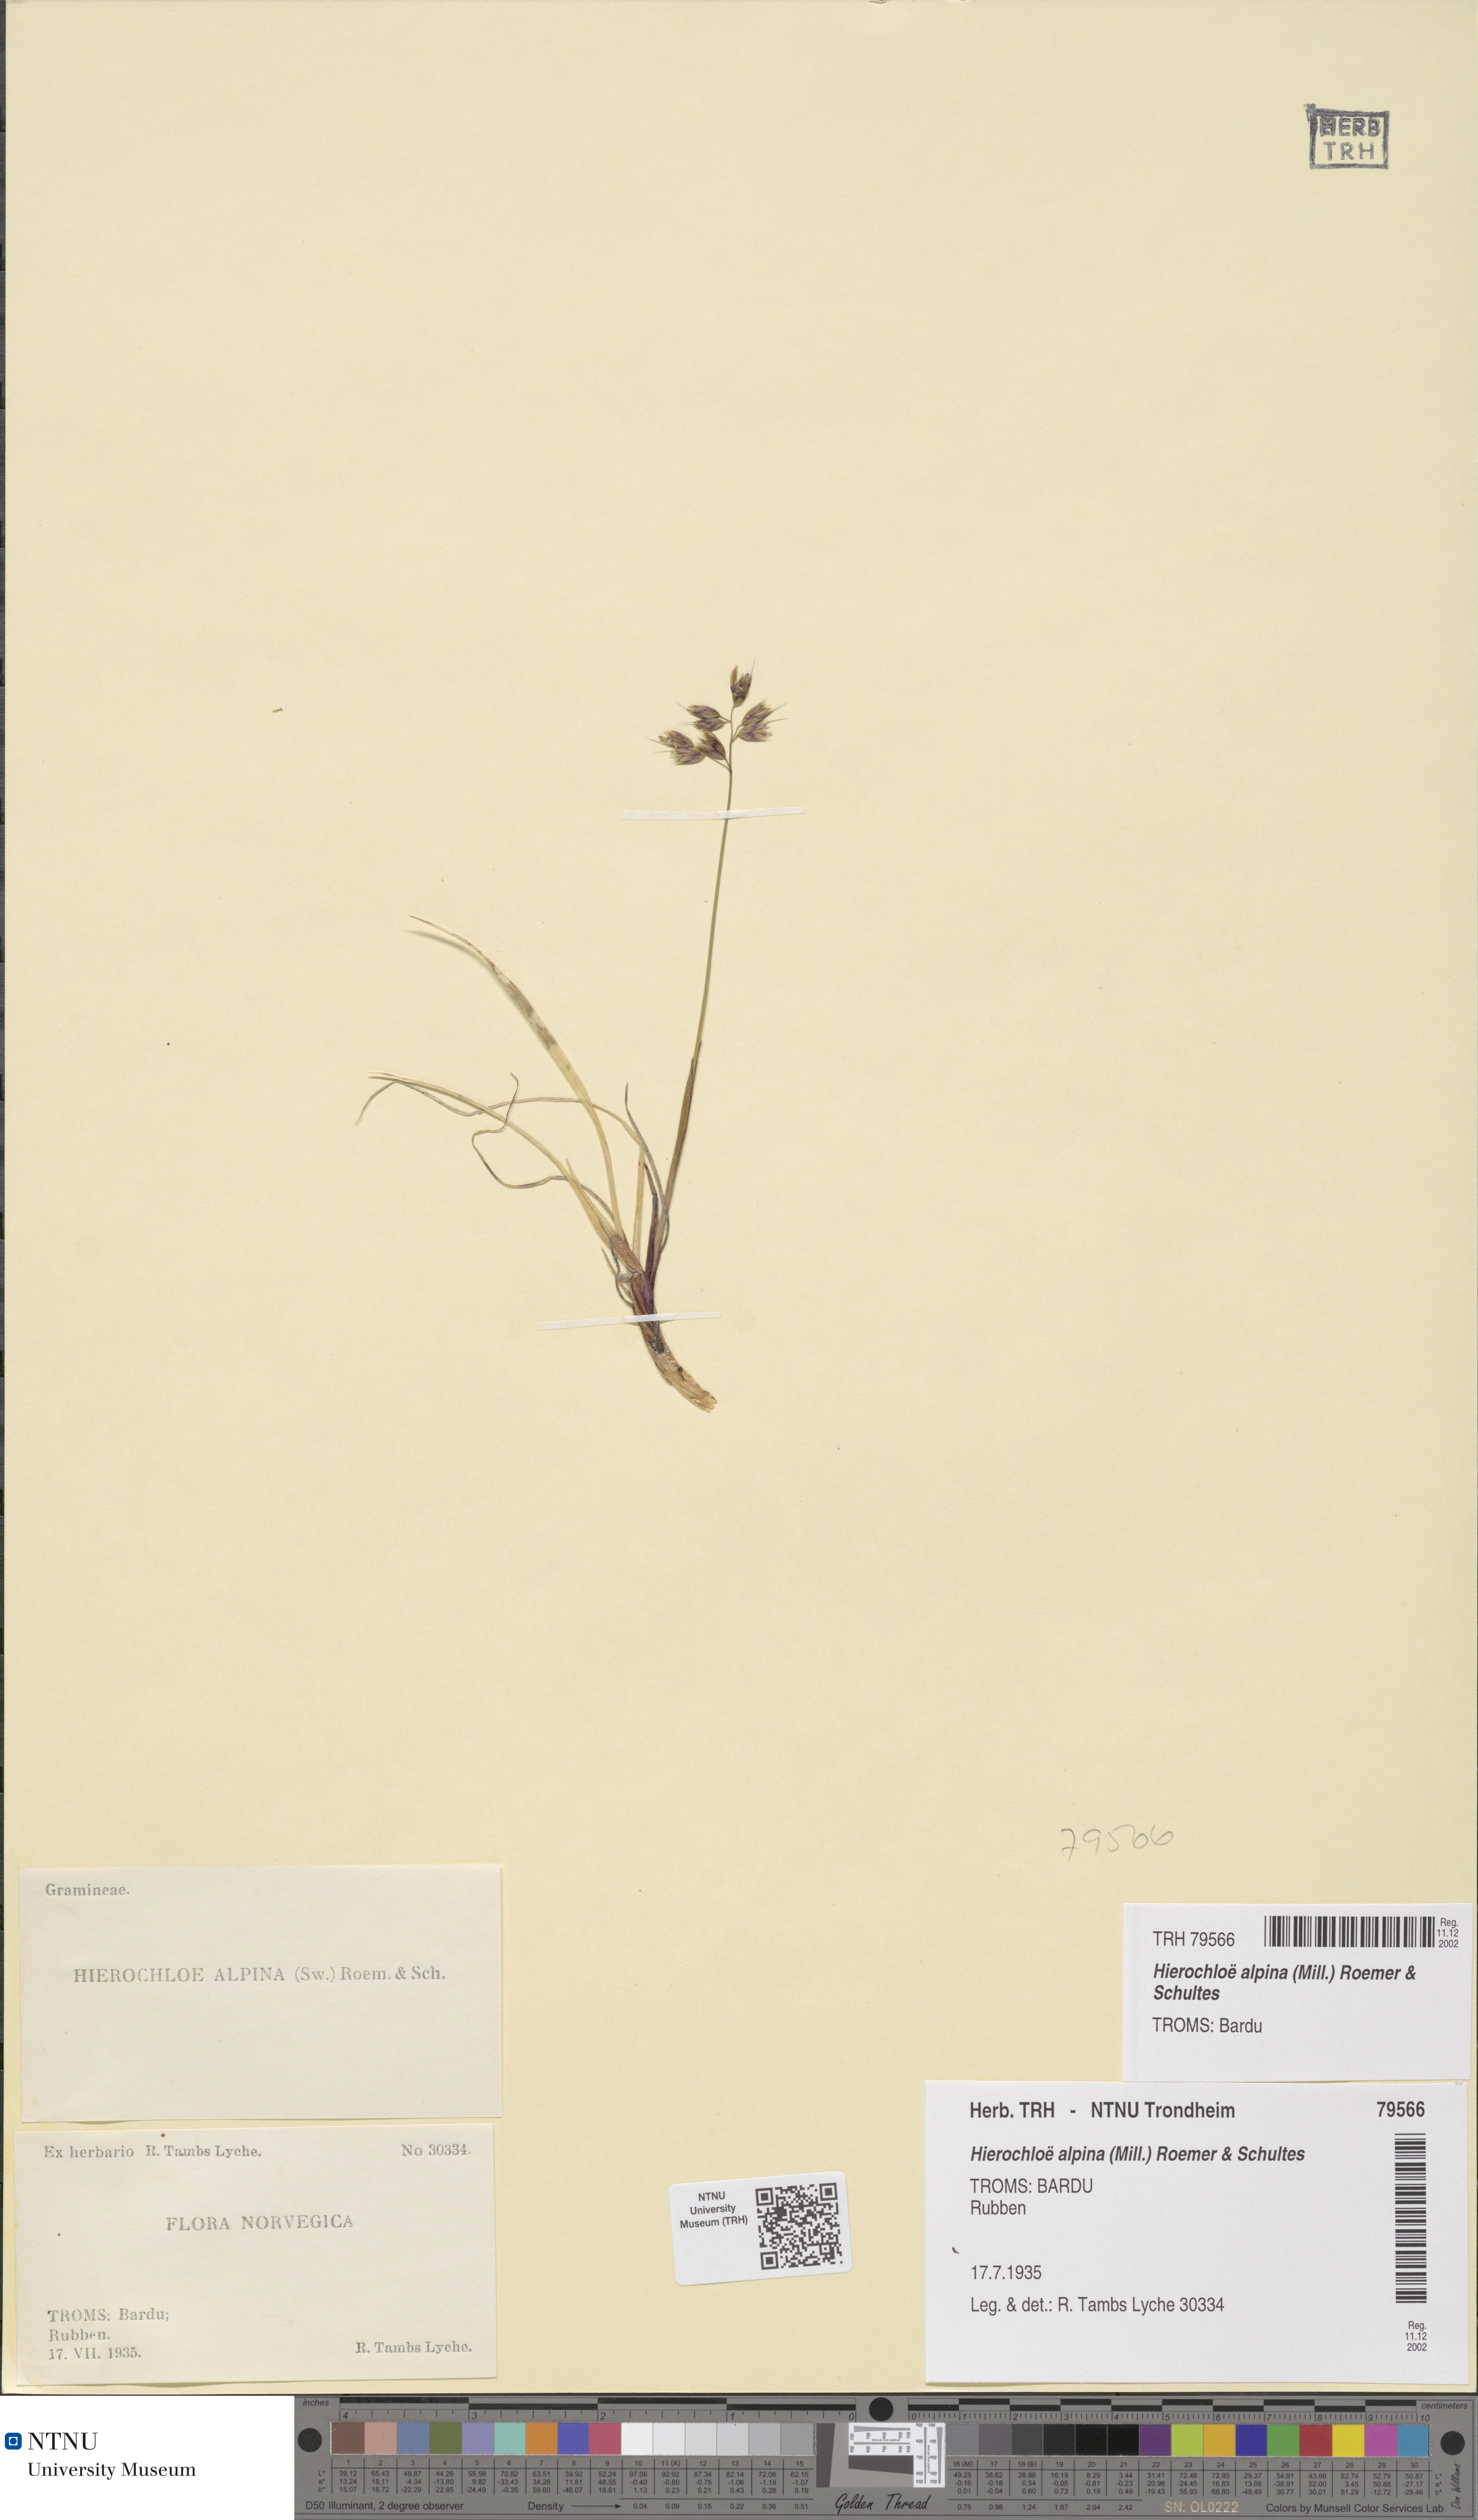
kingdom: Plantae
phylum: Tracheophyta
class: Liliopsida
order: Poales
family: Poaceae
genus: Anthoxanthum
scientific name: Anthoxanthum monticola
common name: Alpine sweetgrass
